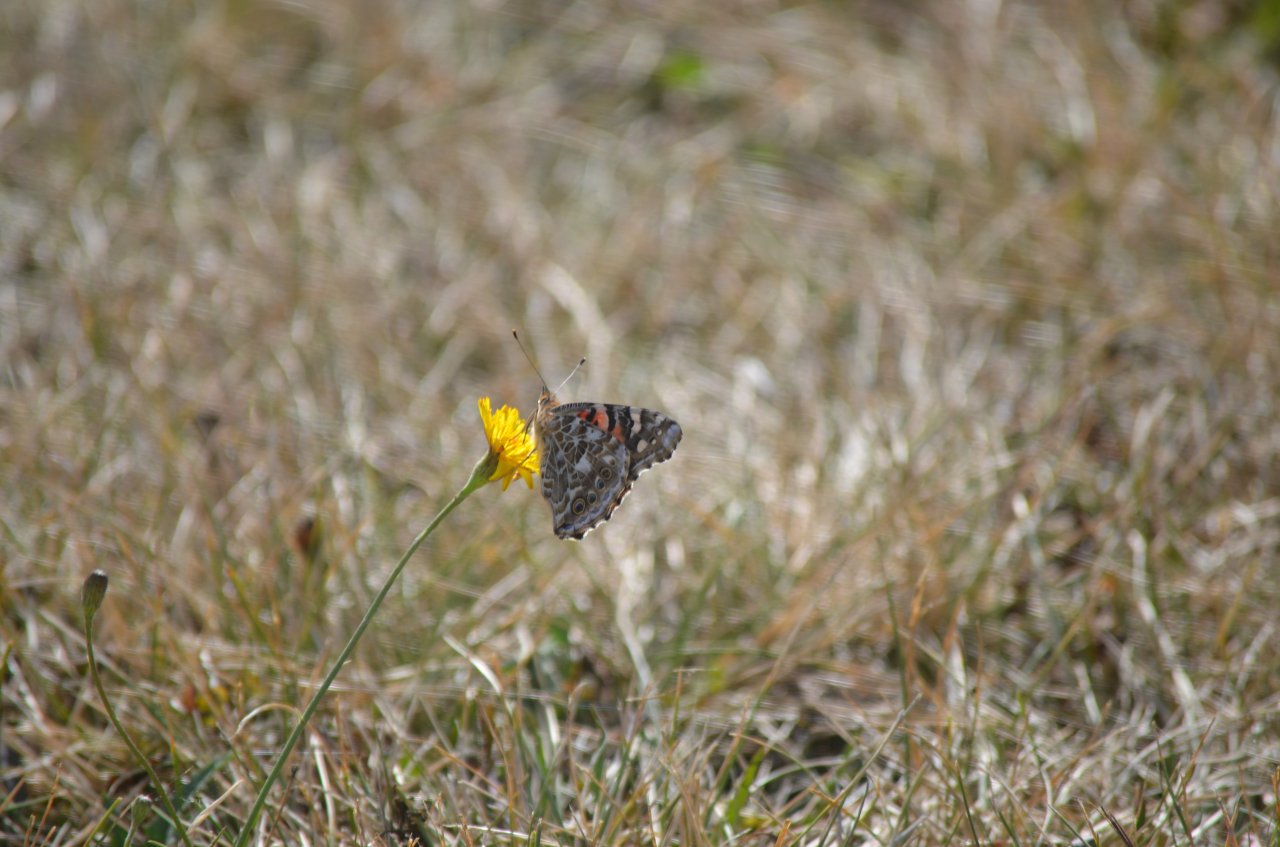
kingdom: Animalia
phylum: Arthropoda
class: Insecta
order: Lepidoptera
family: Nymphalidae
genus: Vanessa
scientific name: Vanessa cardui
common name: Painted Lady
